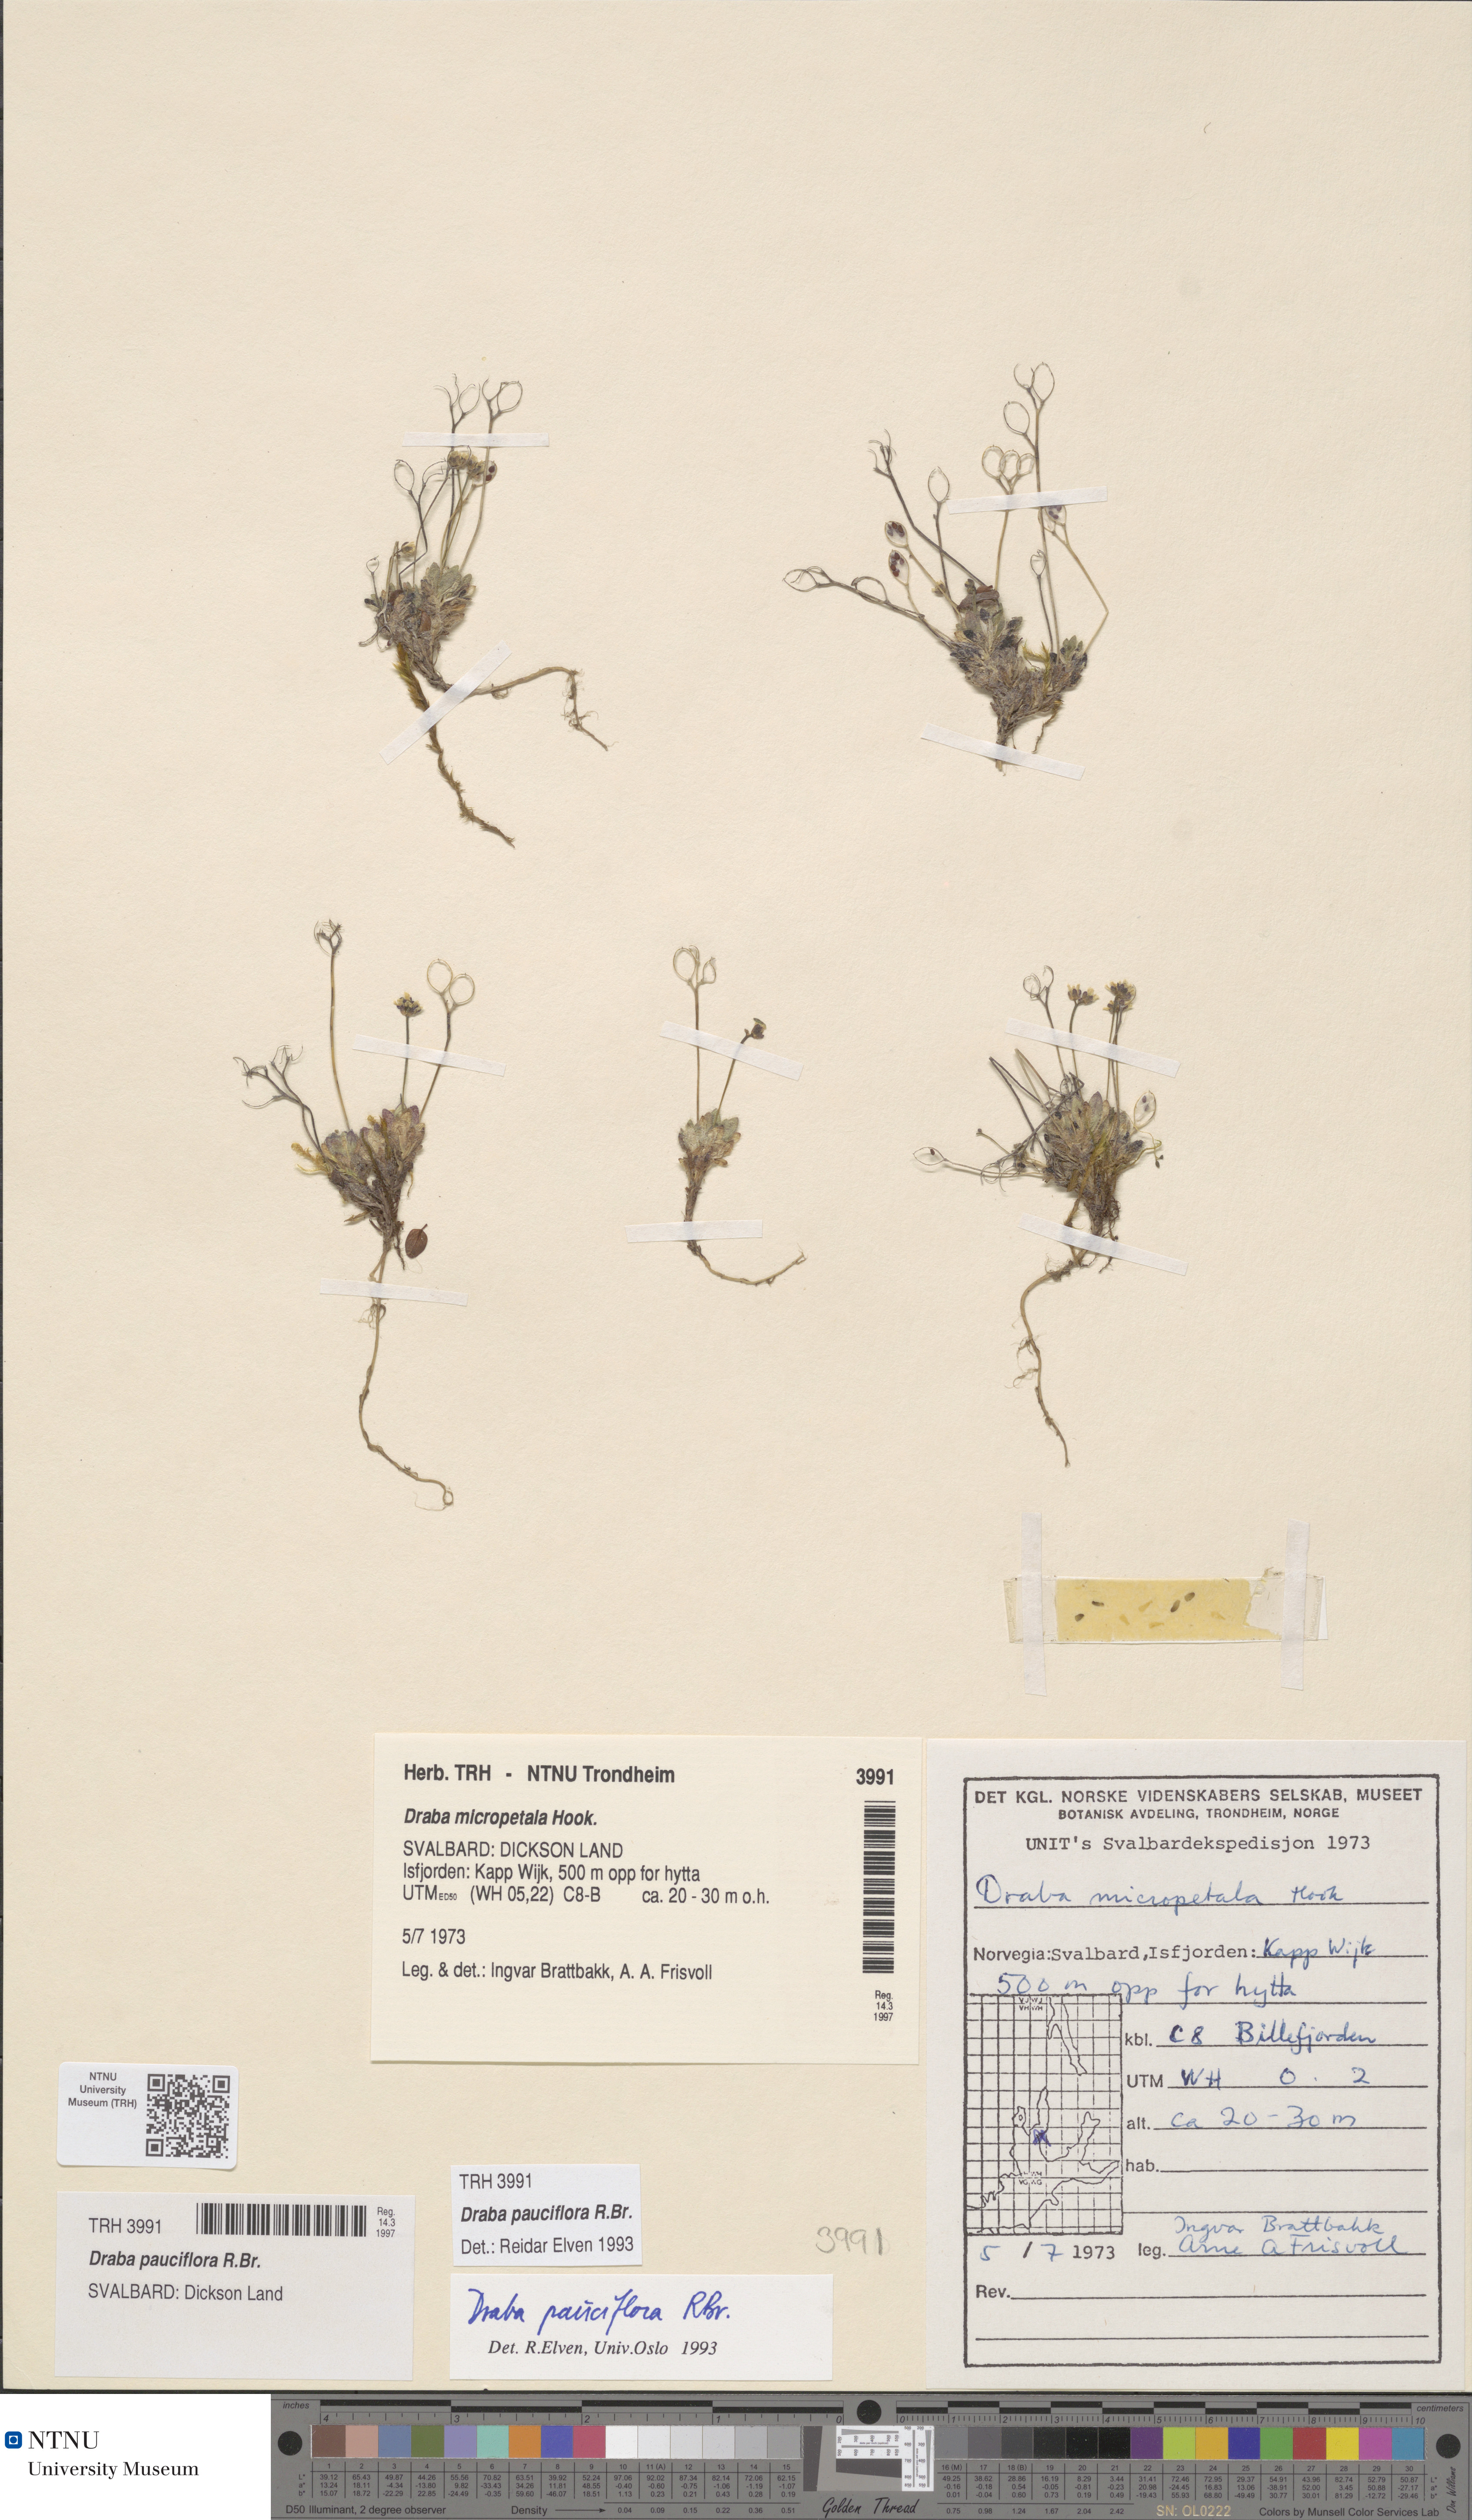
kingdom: Plantae
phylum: Tracheophyta
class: Magnoliopsida
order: Brassicales
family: Brassicaceae
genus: Draba
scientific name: Draba pauciflora
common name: Few-flowered draba
